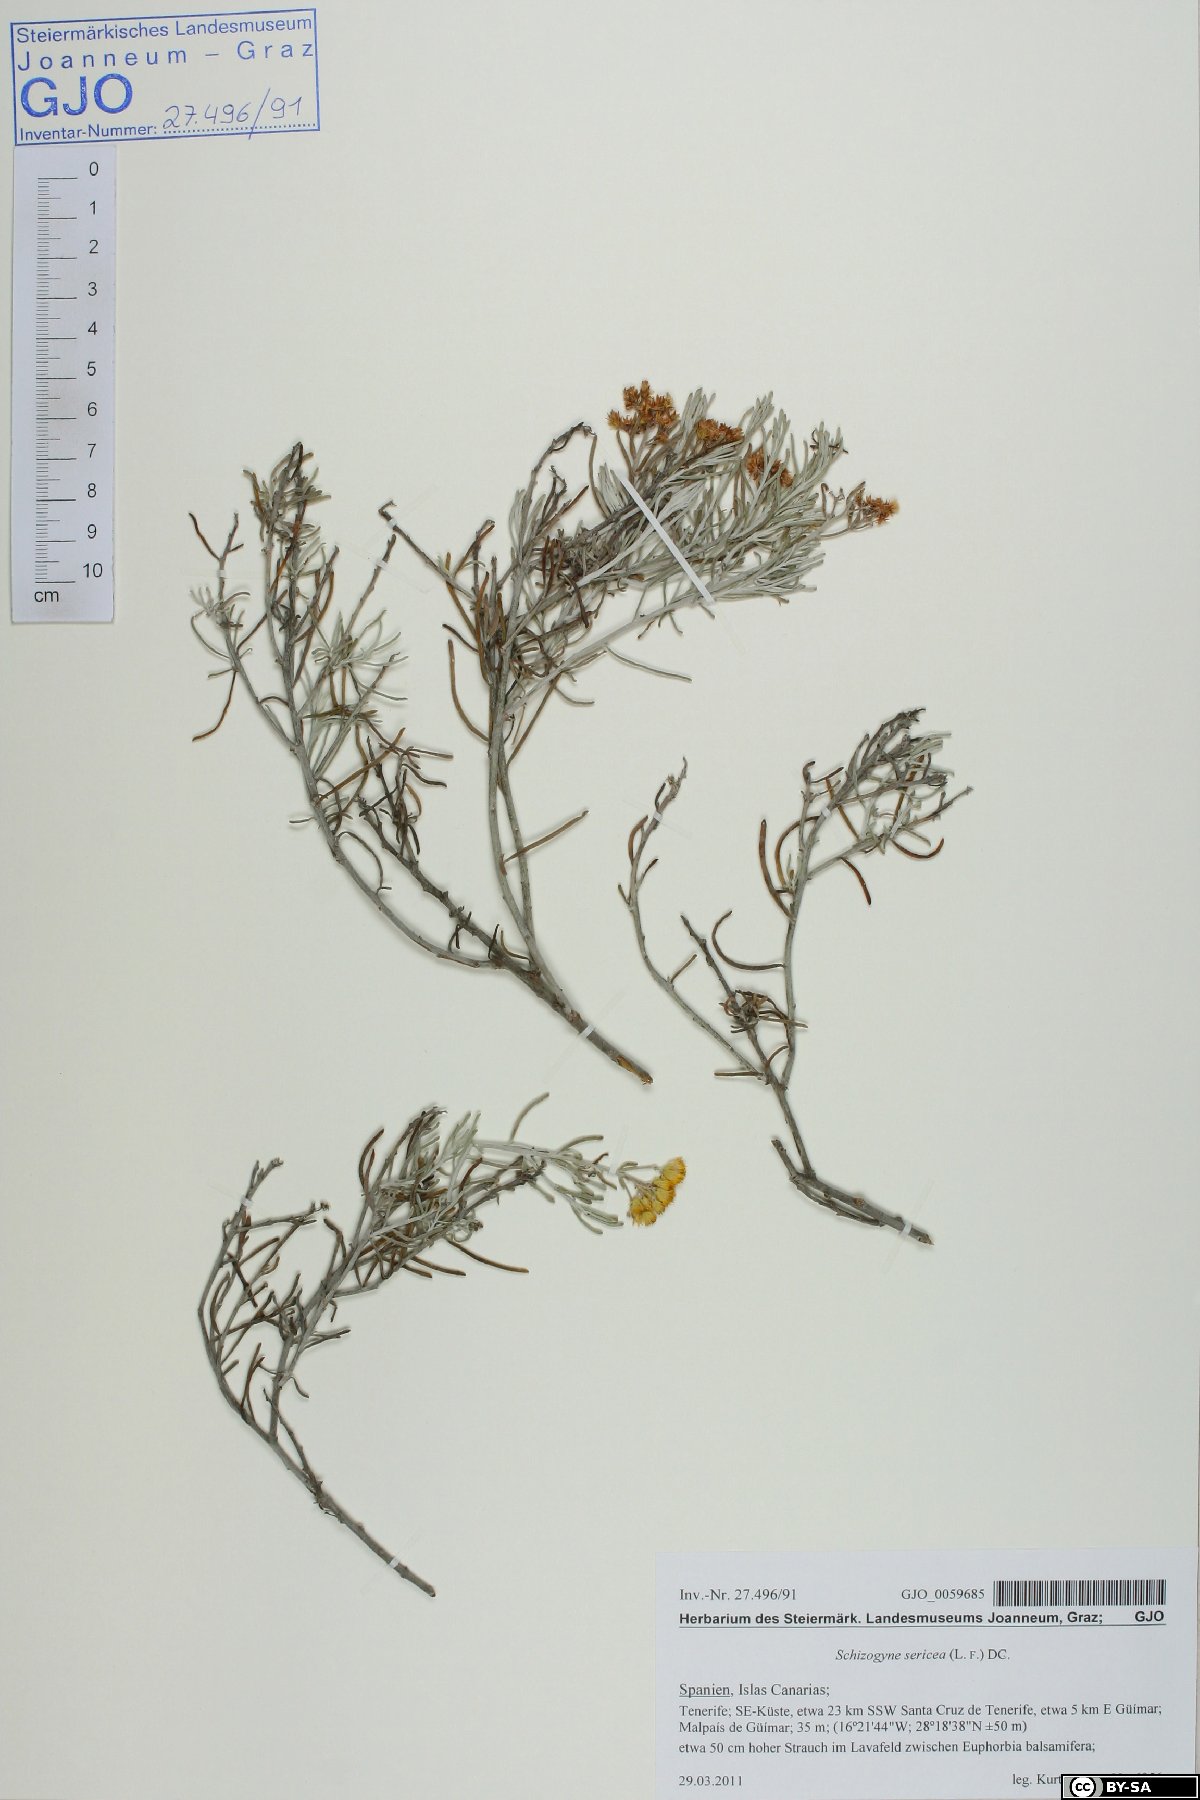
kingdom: Plantae
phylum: Tracheophyta
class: Magnoliopsida
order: Asterales
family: Asteraceae
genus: Schizogyne
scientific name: Schizogyne sericea
